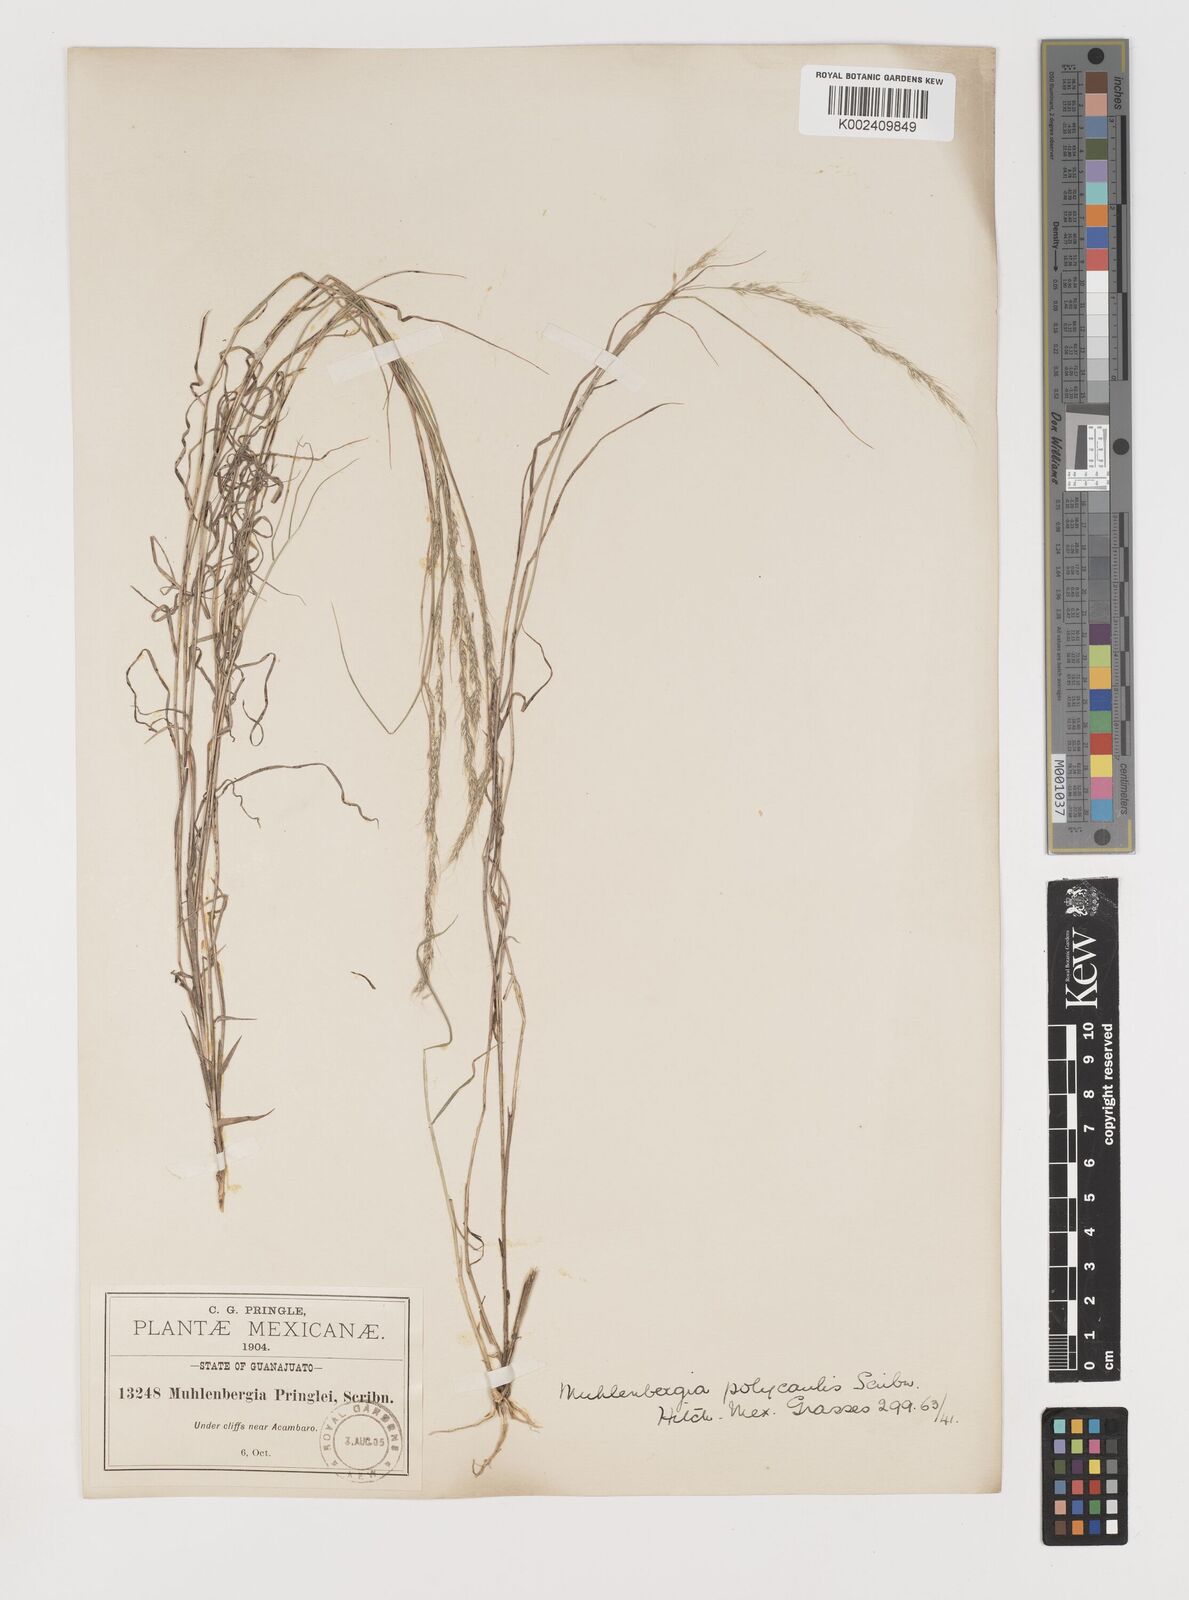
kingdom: Plantae
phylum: Tracheophyta
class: Liliopsida
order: Poales
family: Poaceae
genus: Muhlenbergia
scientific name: Muhlenbergia polycaulis
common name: Cliff muhly
